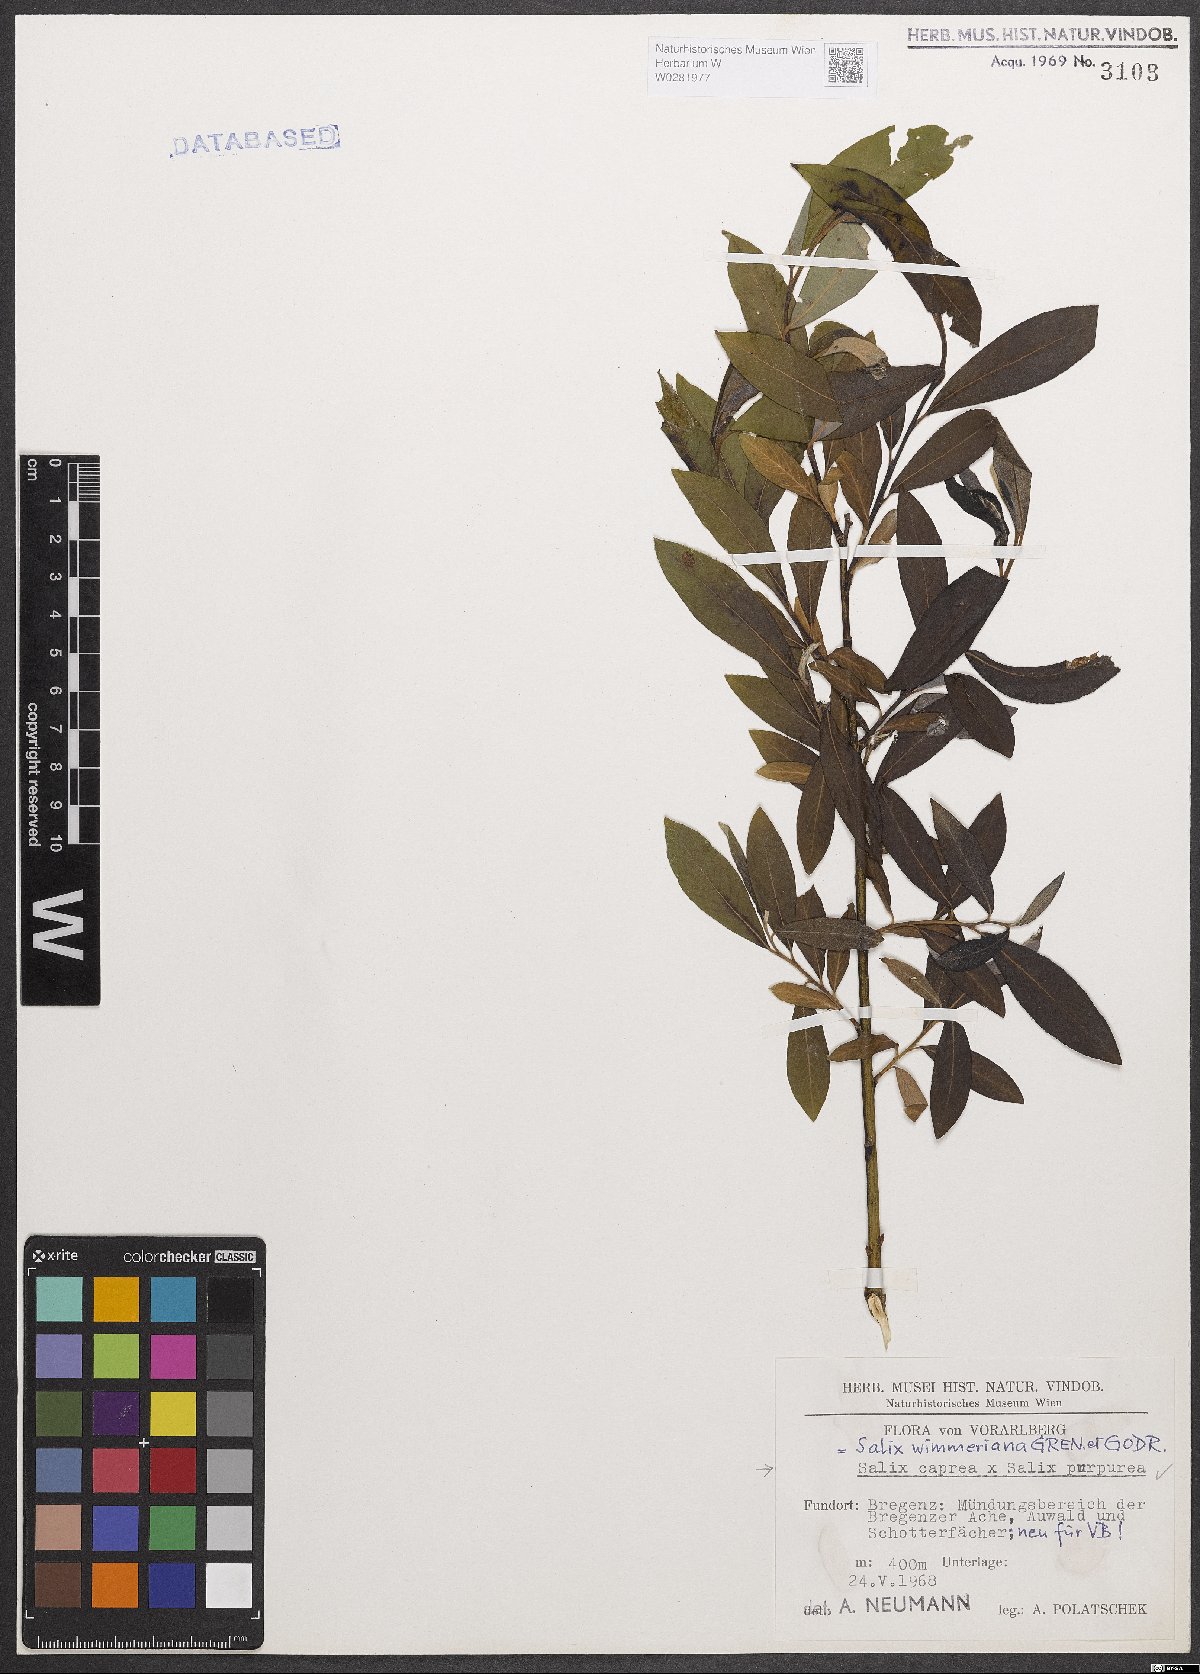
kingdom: Plantae
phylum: Tracheophyta
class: Magnoliopsida
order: Malpighiales
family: Salicaceae
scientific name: Salicaceae
